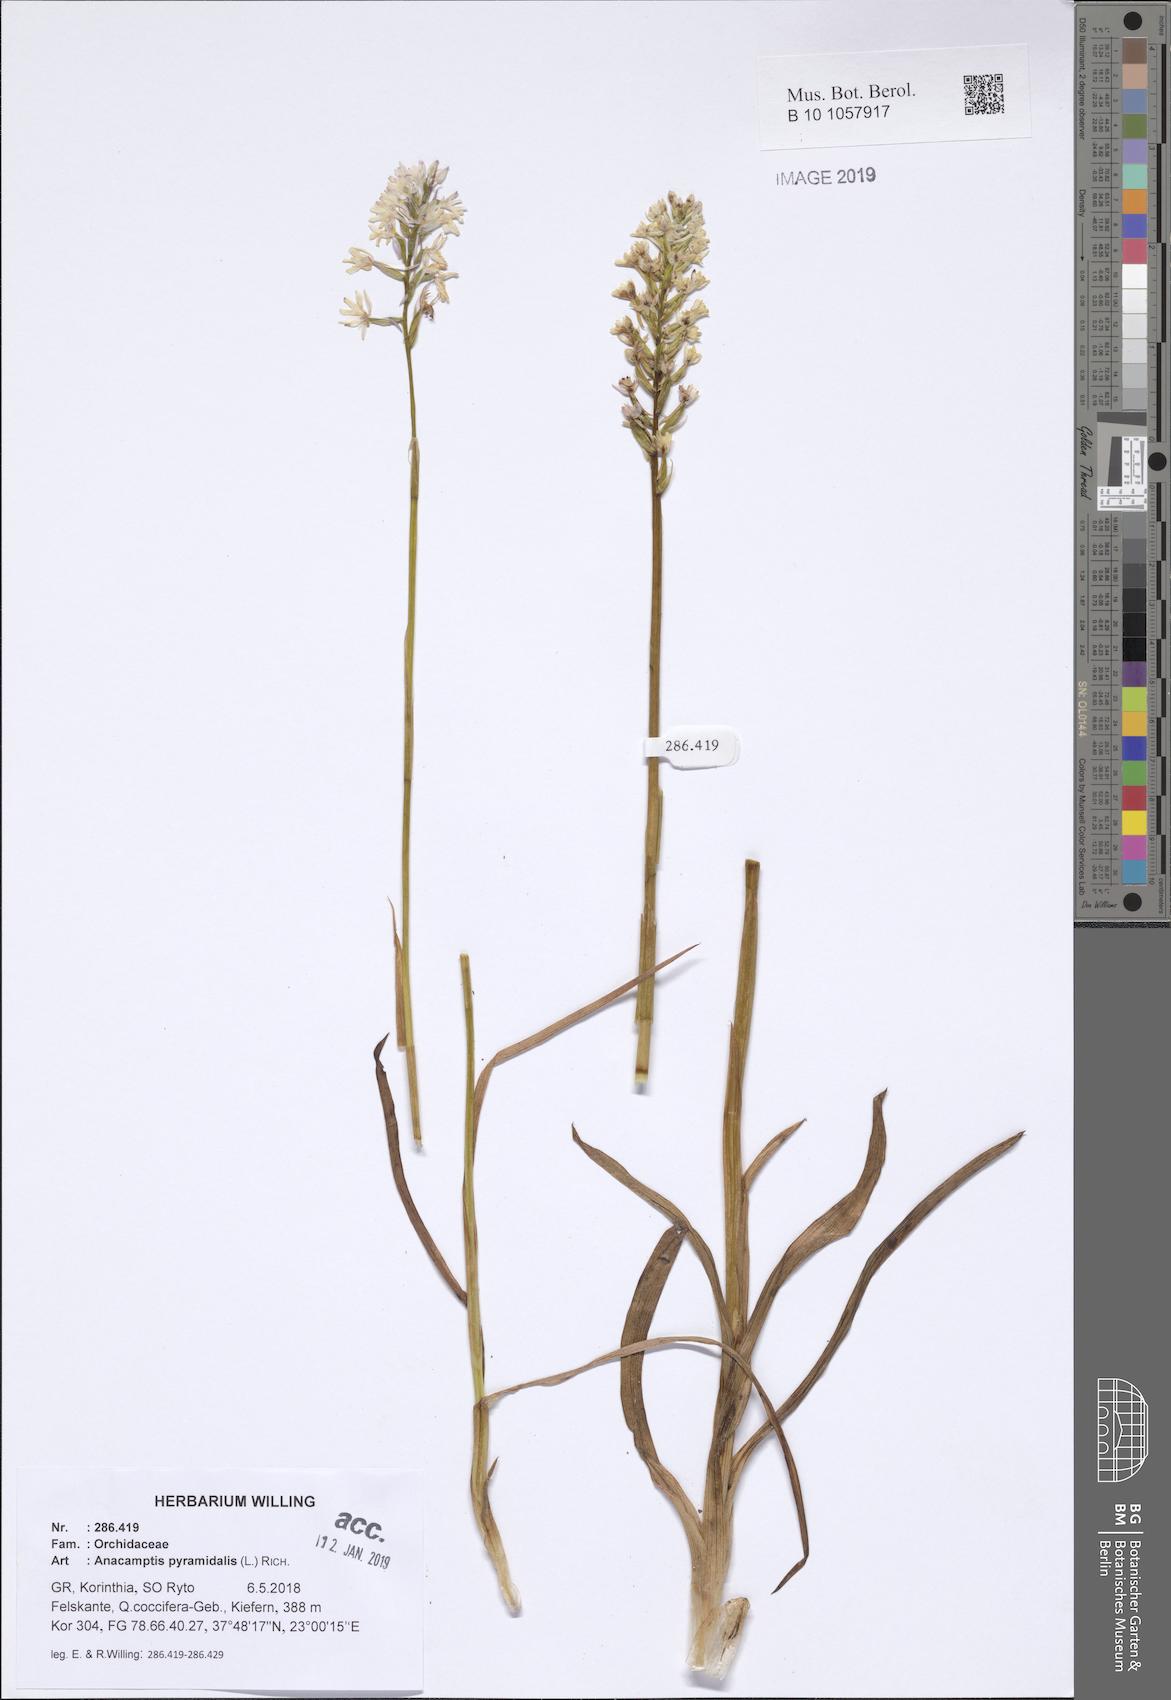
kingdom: Plantae
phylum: Tracheophyta
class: Liliopsida
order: Asparagales
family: Orchidaceae
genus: Anacamptis
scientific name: Anacamptis pyramidalis
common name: Pyramidal orchid
